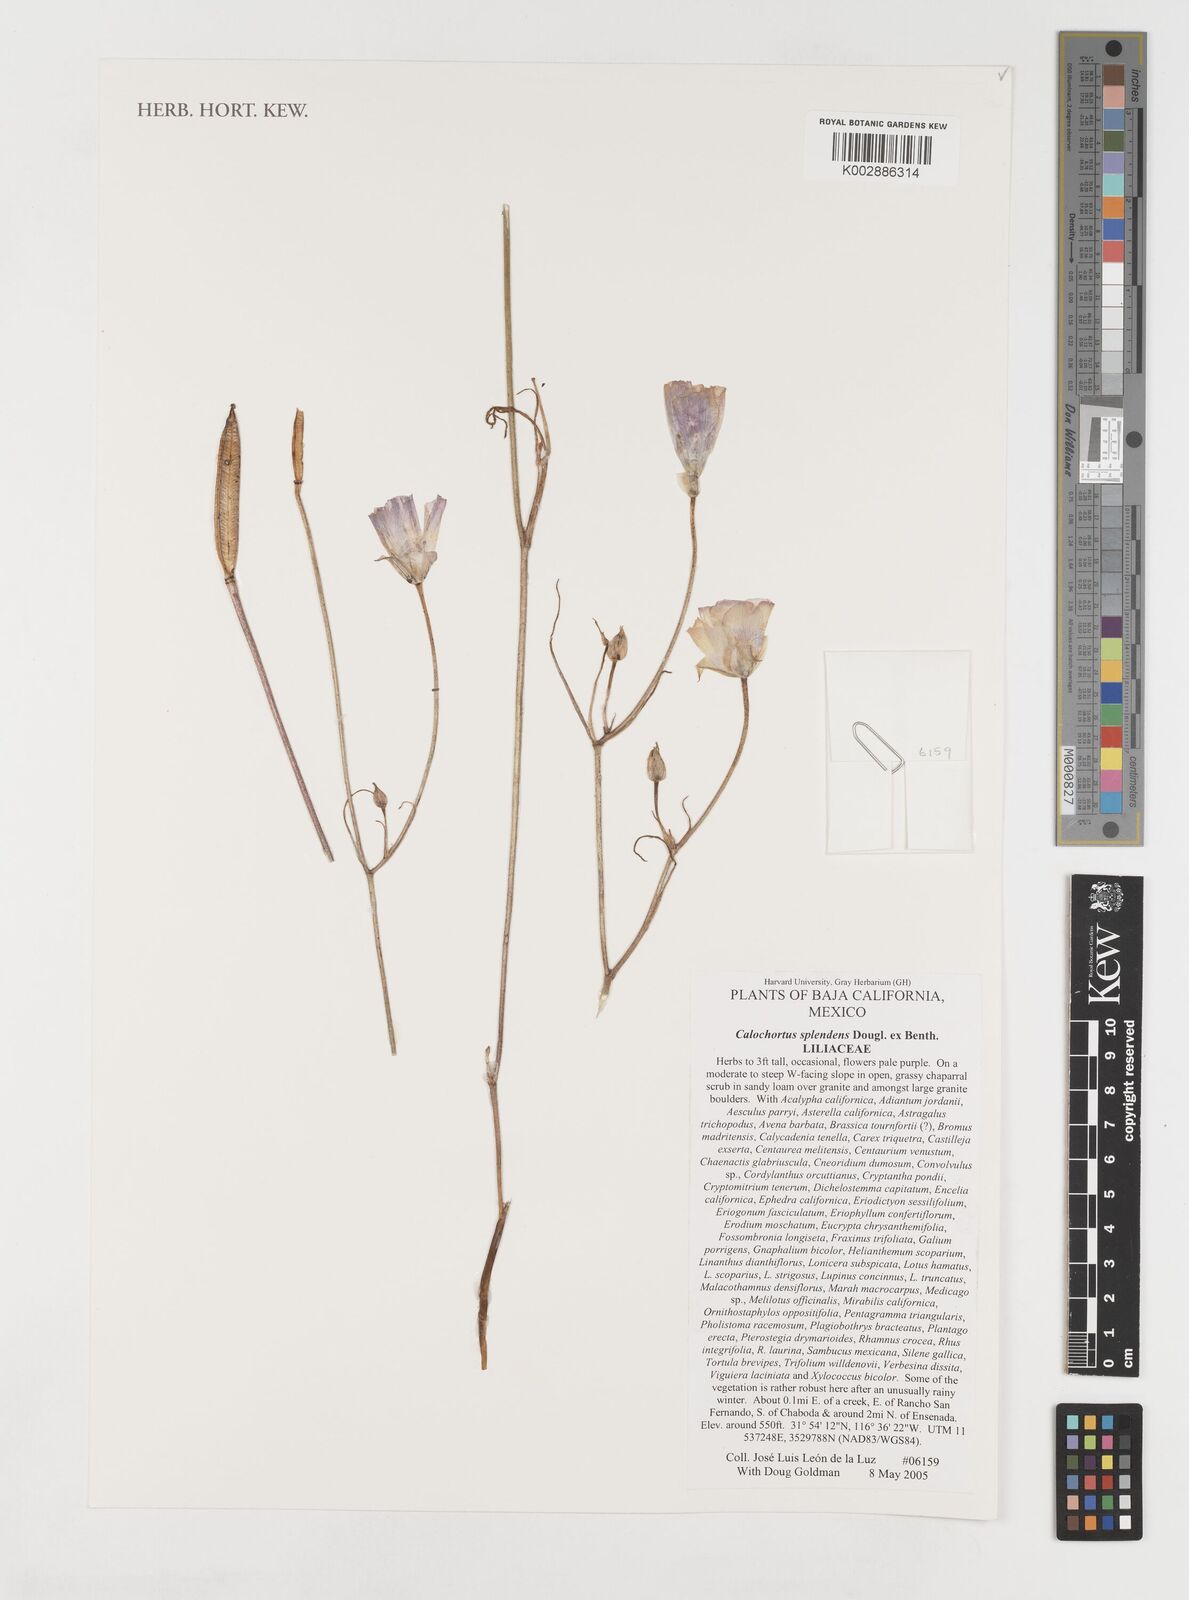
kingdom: Plantae
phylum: Tracheophyta
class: Liliopsida
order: Liliales
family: Liliaceae
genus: Calochortus
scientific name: Calochortus splendens
